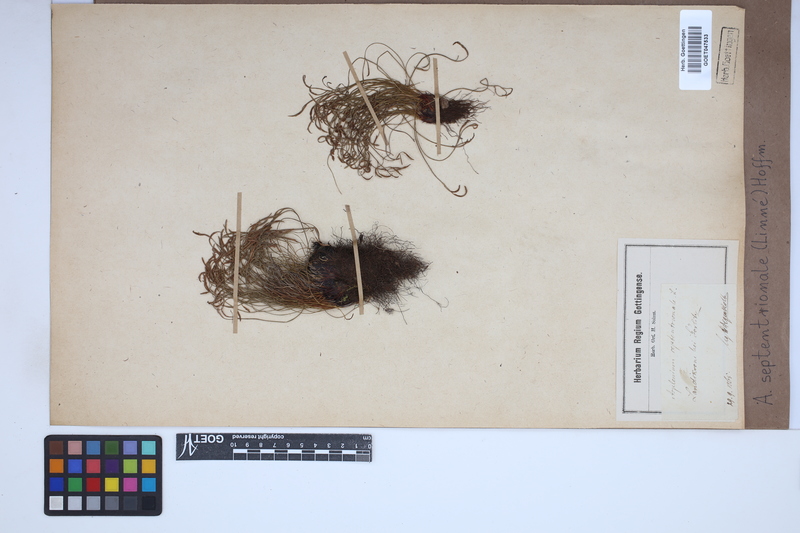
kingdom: Plantae
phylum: Tracheophyta
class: Polypodiopsida
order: Polypodiales
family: Aspleniaceae
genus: Asplenium
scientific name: Asplenium septentrionale
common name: Forked spleenwort
